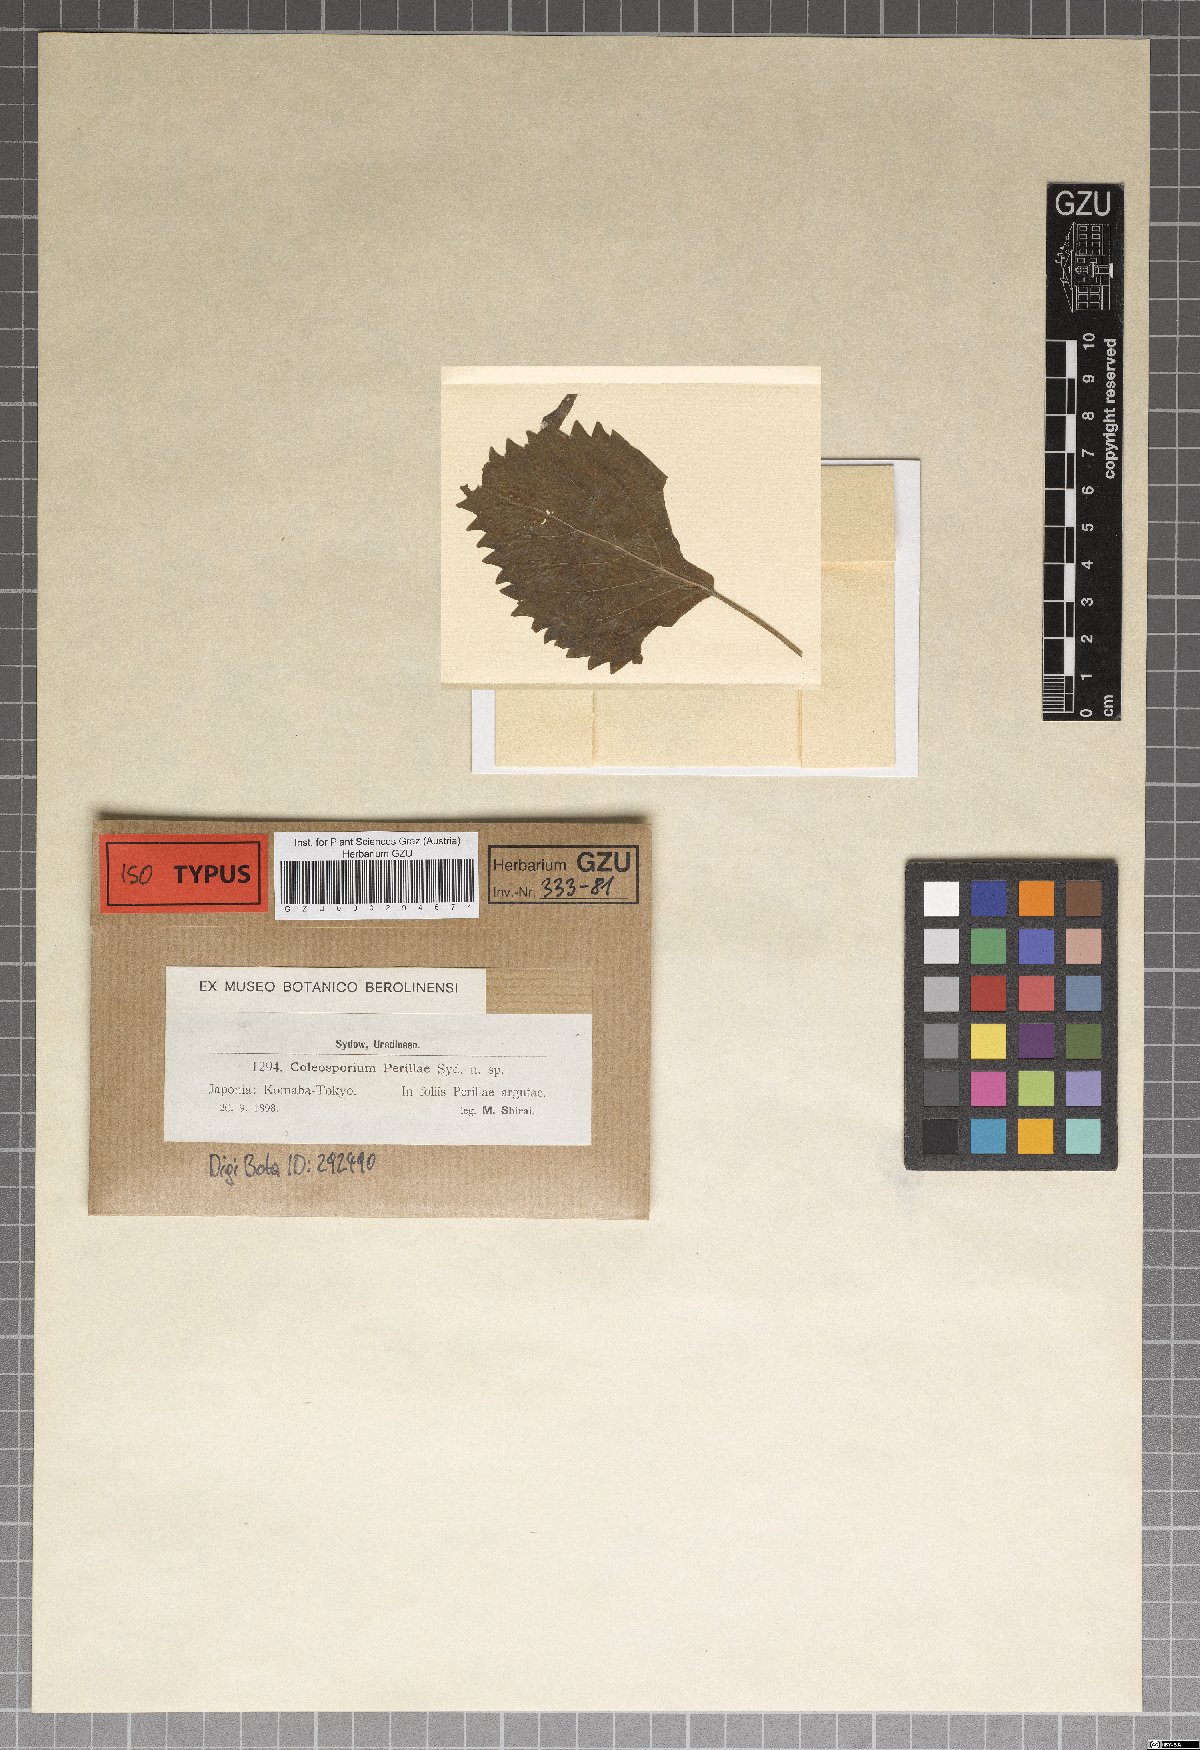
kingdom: Fungi
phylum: Basidiomycota
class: Pucciniomycetes
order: Pucciniales
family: Coleosporiaceae
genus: Coleosporium
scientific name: Coleosporium perillae
